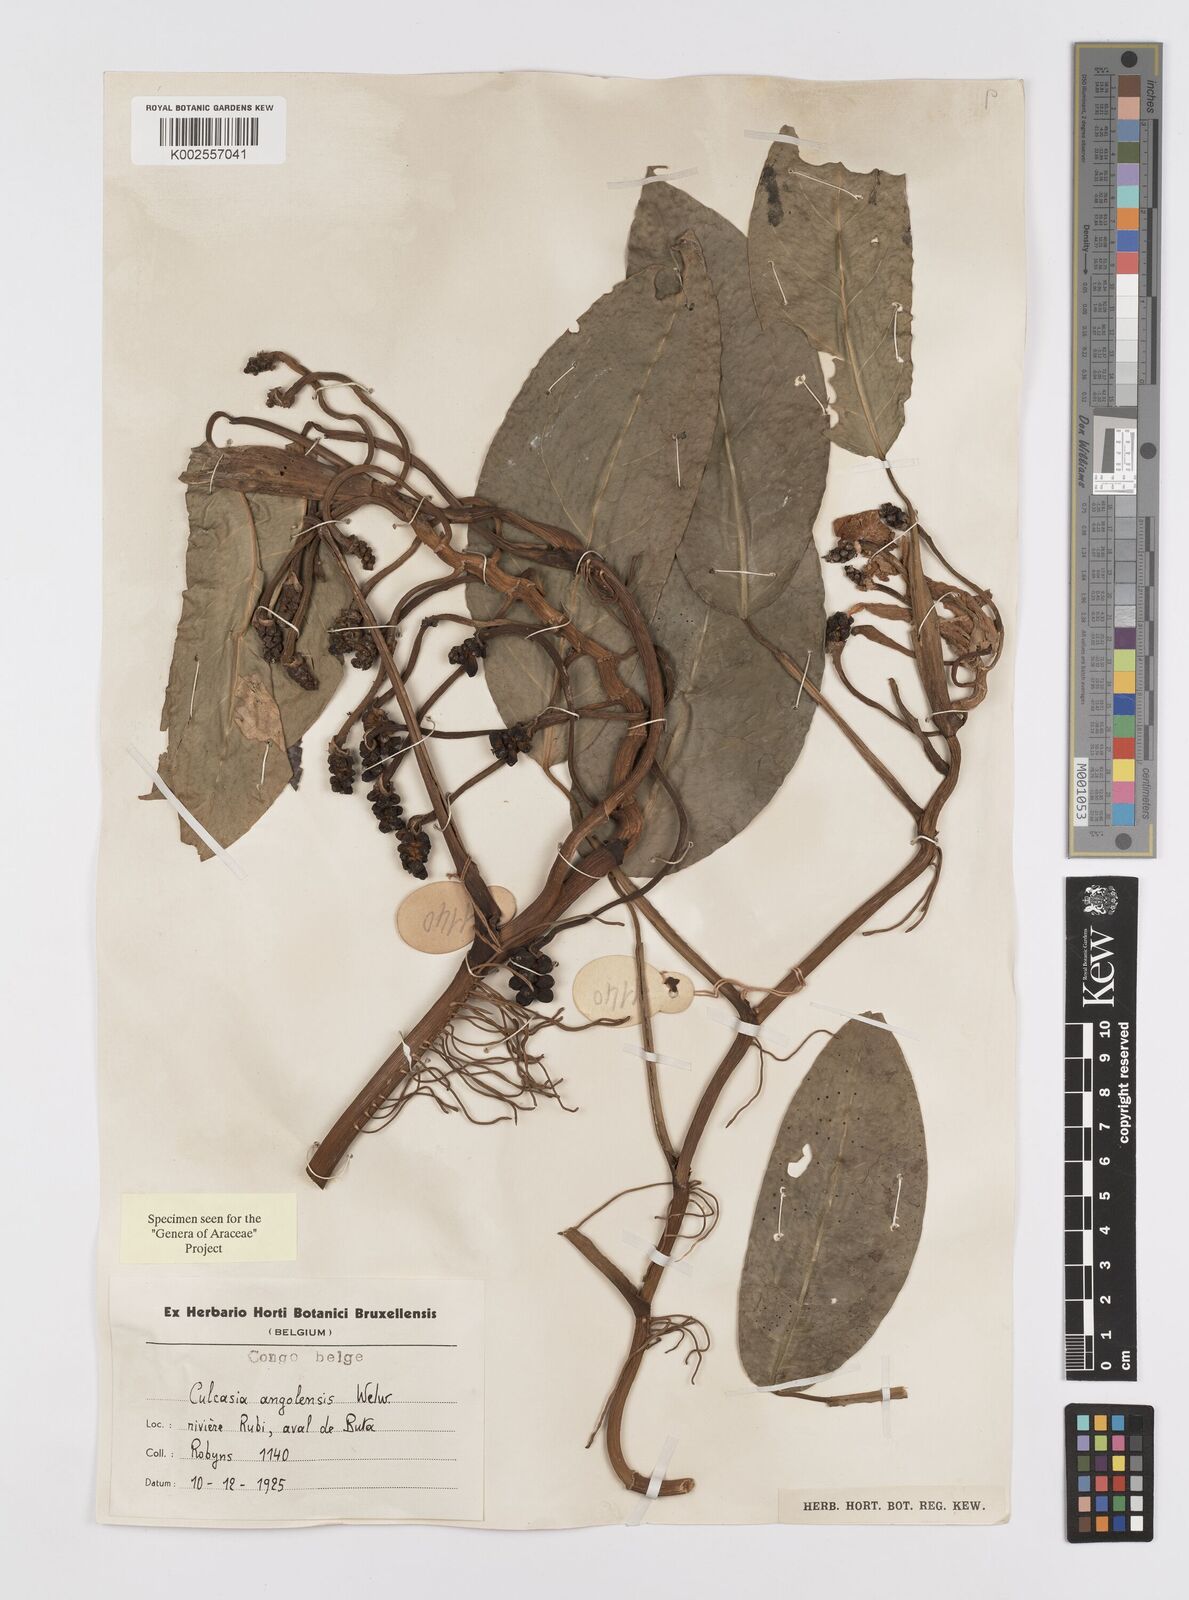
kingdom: Plantae
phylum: Tracheophyta
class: Liliopsida
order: Alismatales
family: Araceae
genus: Culcasia
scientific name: Culcasia angolensis
